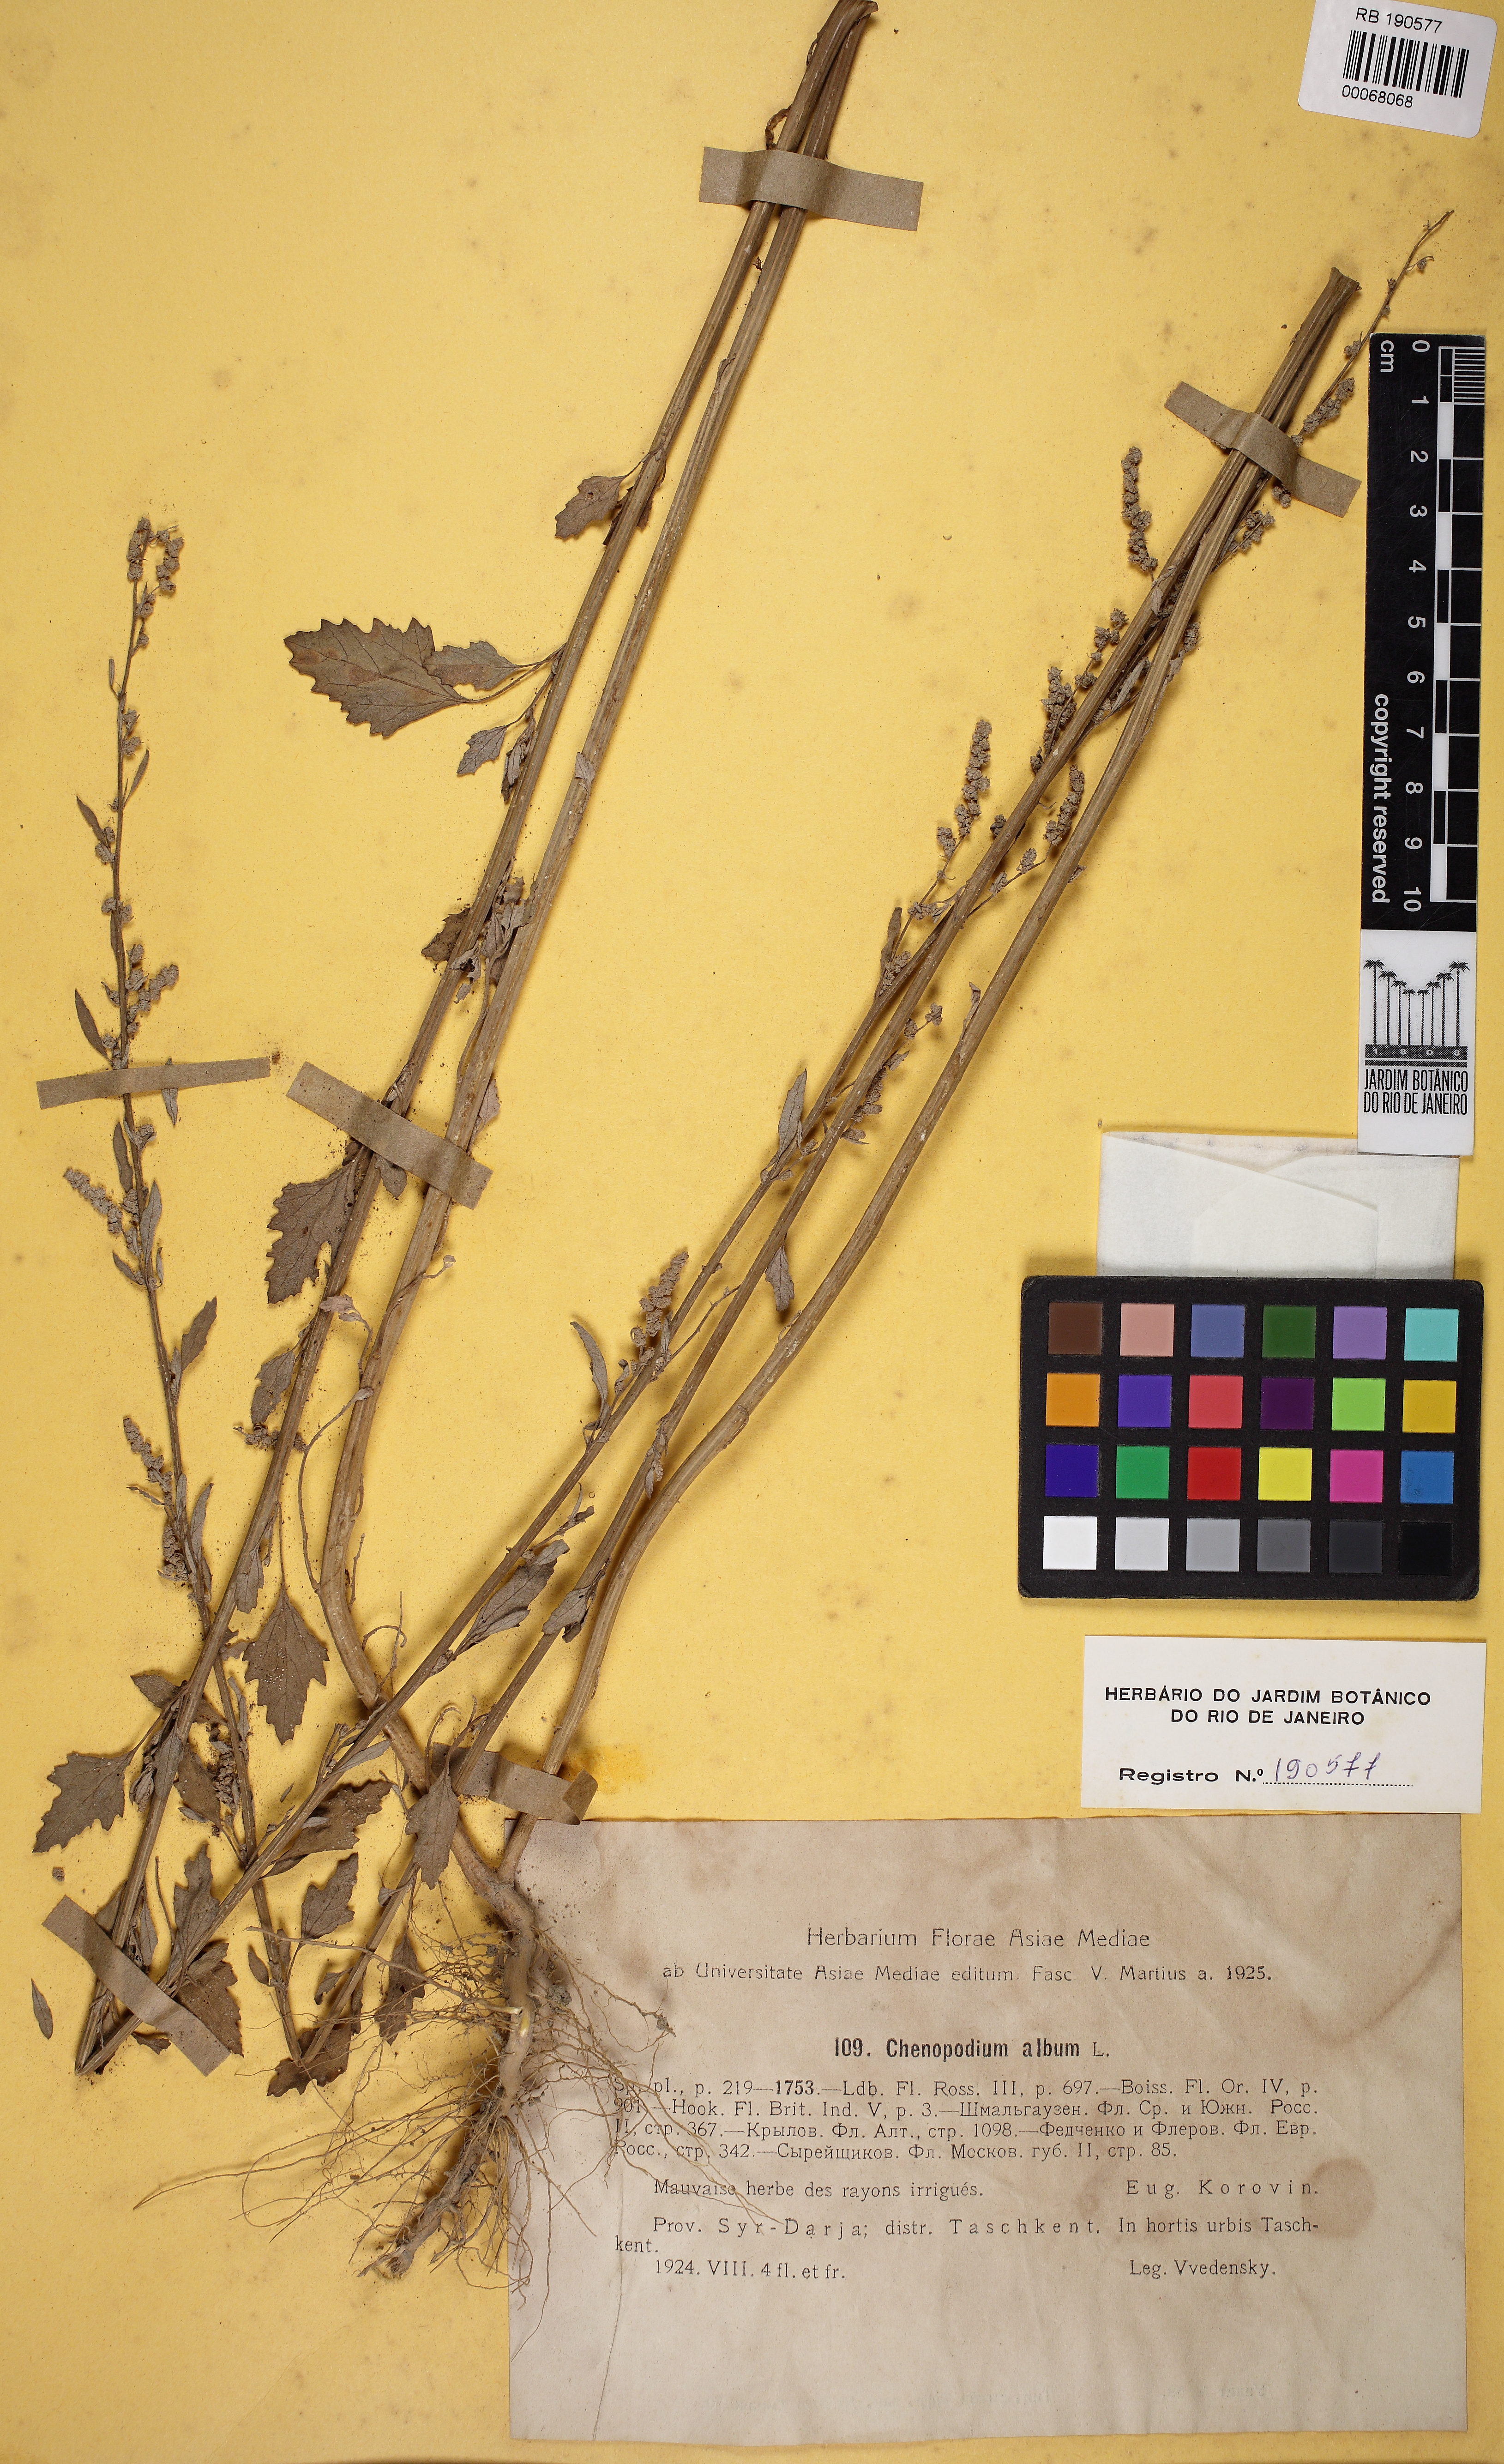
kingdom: Plantae
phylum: Tracheophyta
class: Magnoliopsida
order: Caryophyllales
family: Amaranthaceae
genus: Chenopodium
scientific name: Chenopodium album
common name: Fat-hen
